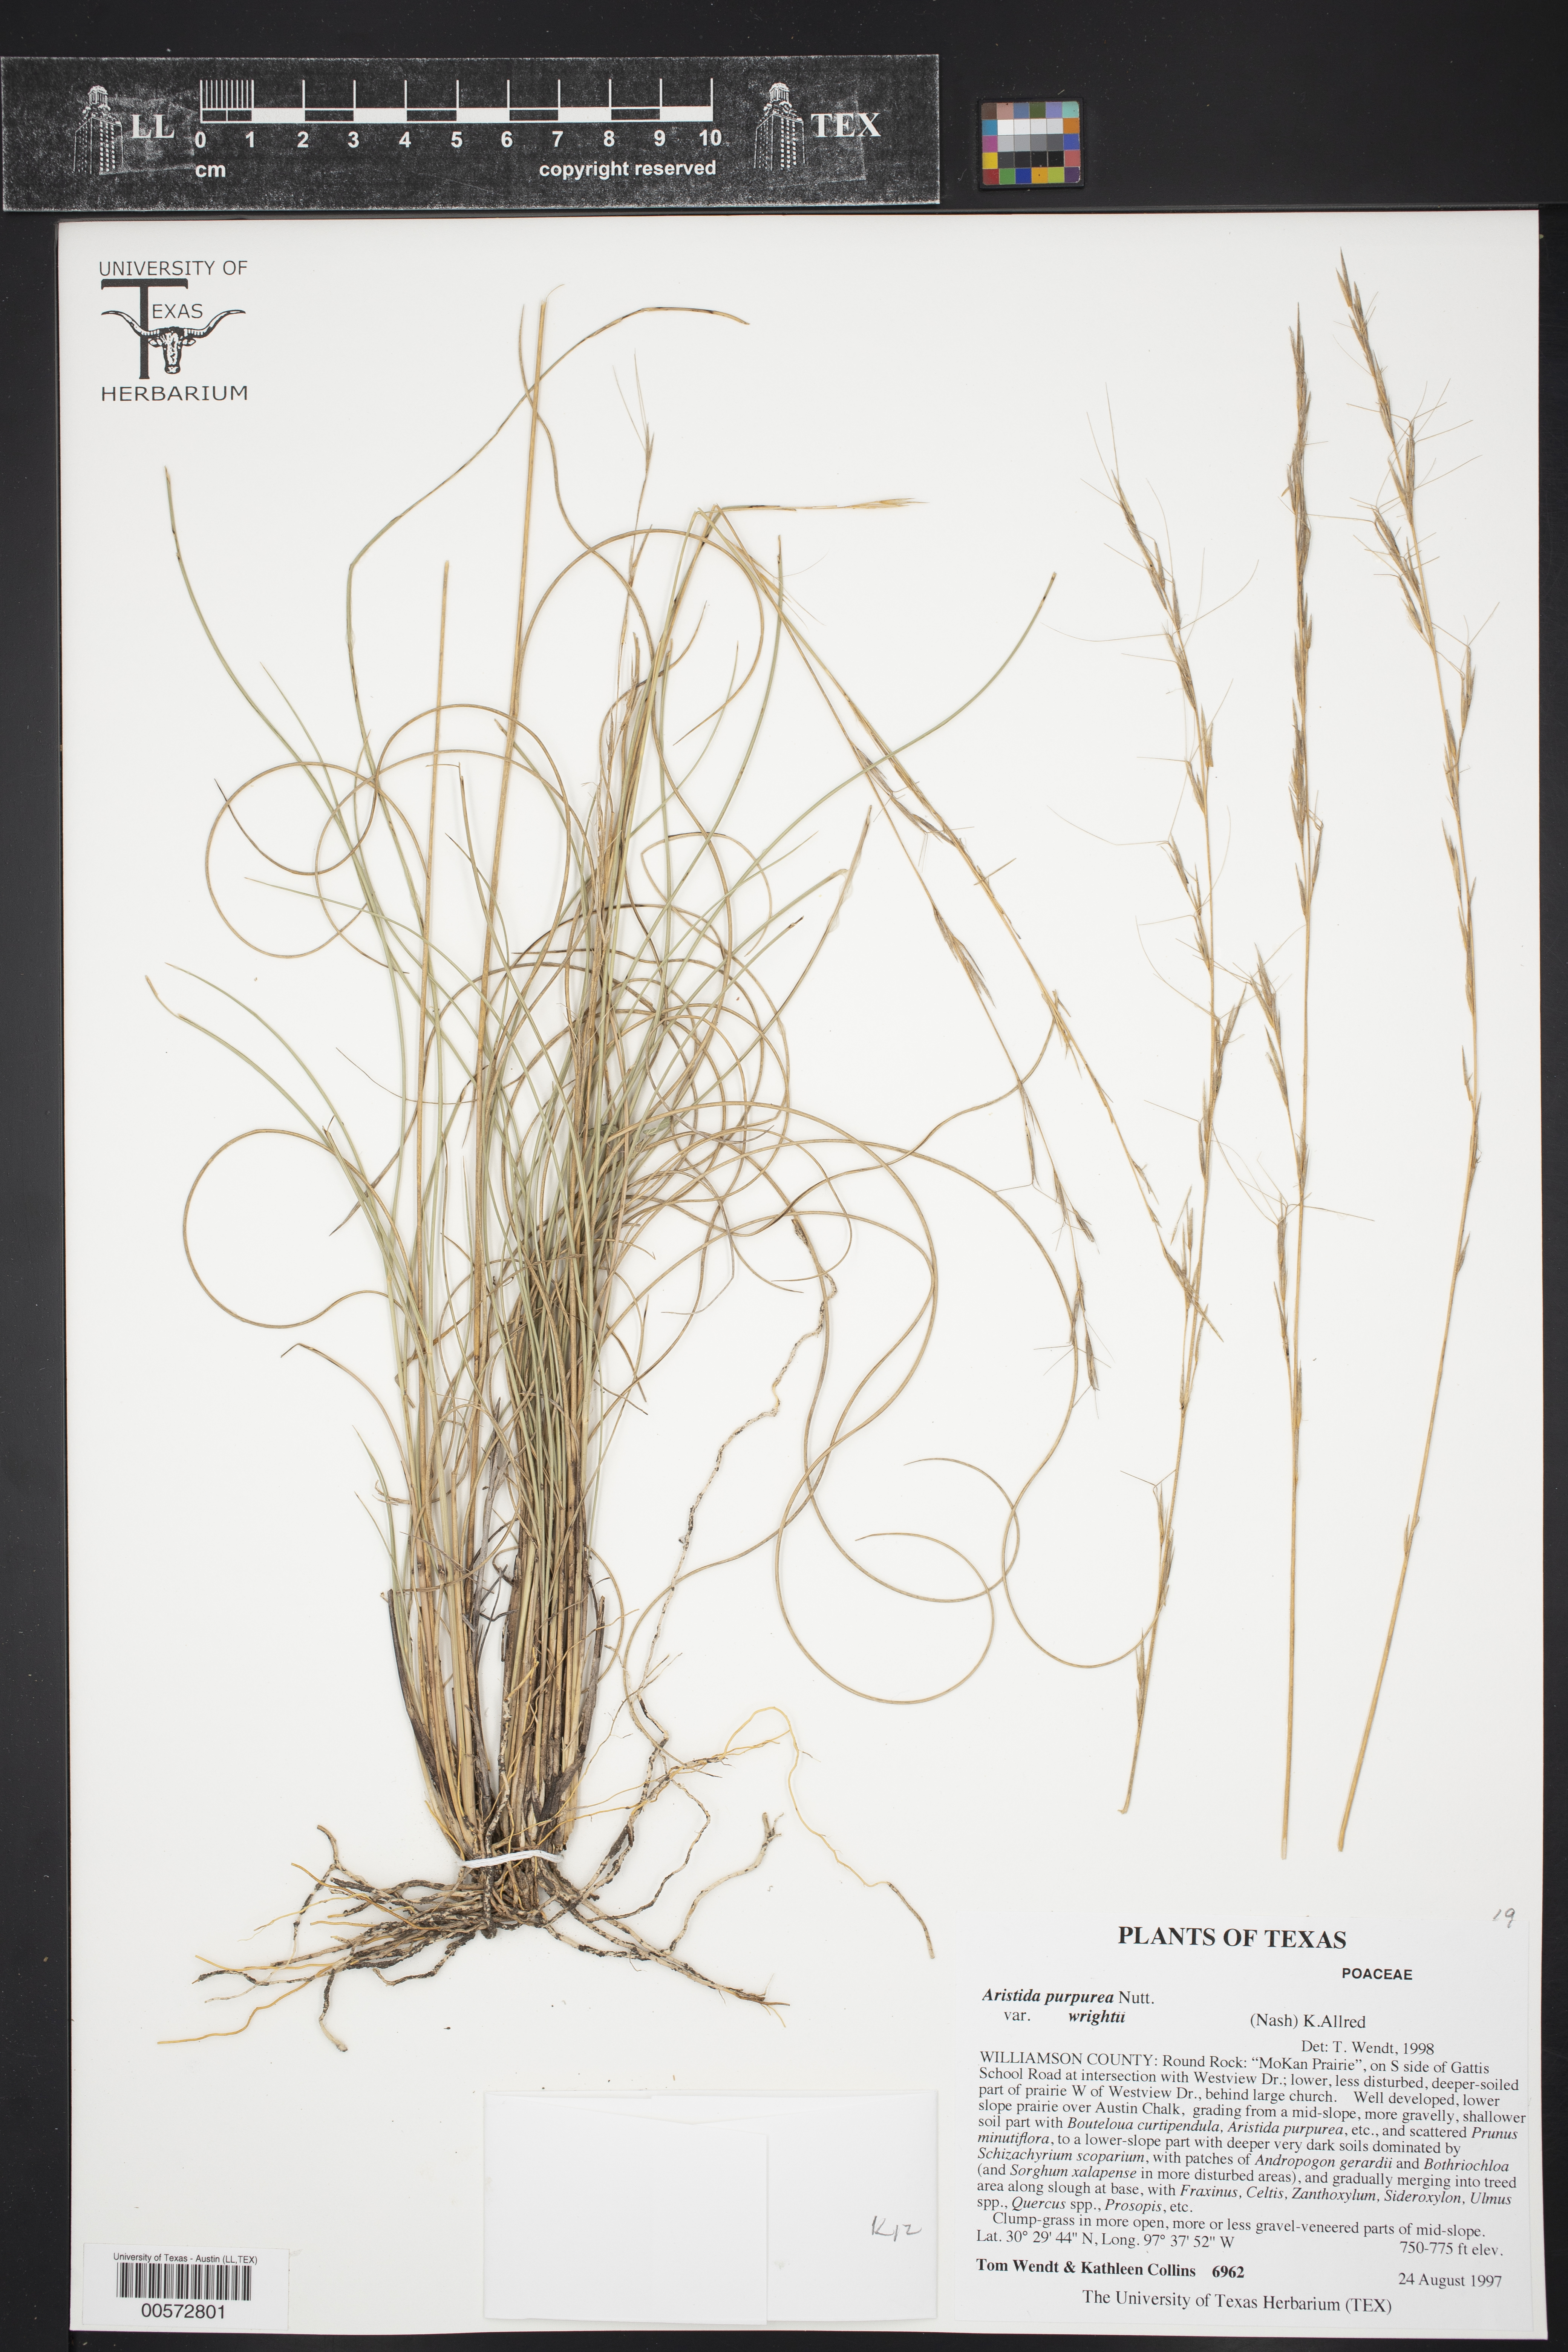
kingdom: Plantae
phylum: Tracheophyta
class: Liliopsida
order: Poales
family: Poaceae
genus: Aristida
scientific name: Aristida wrightii
